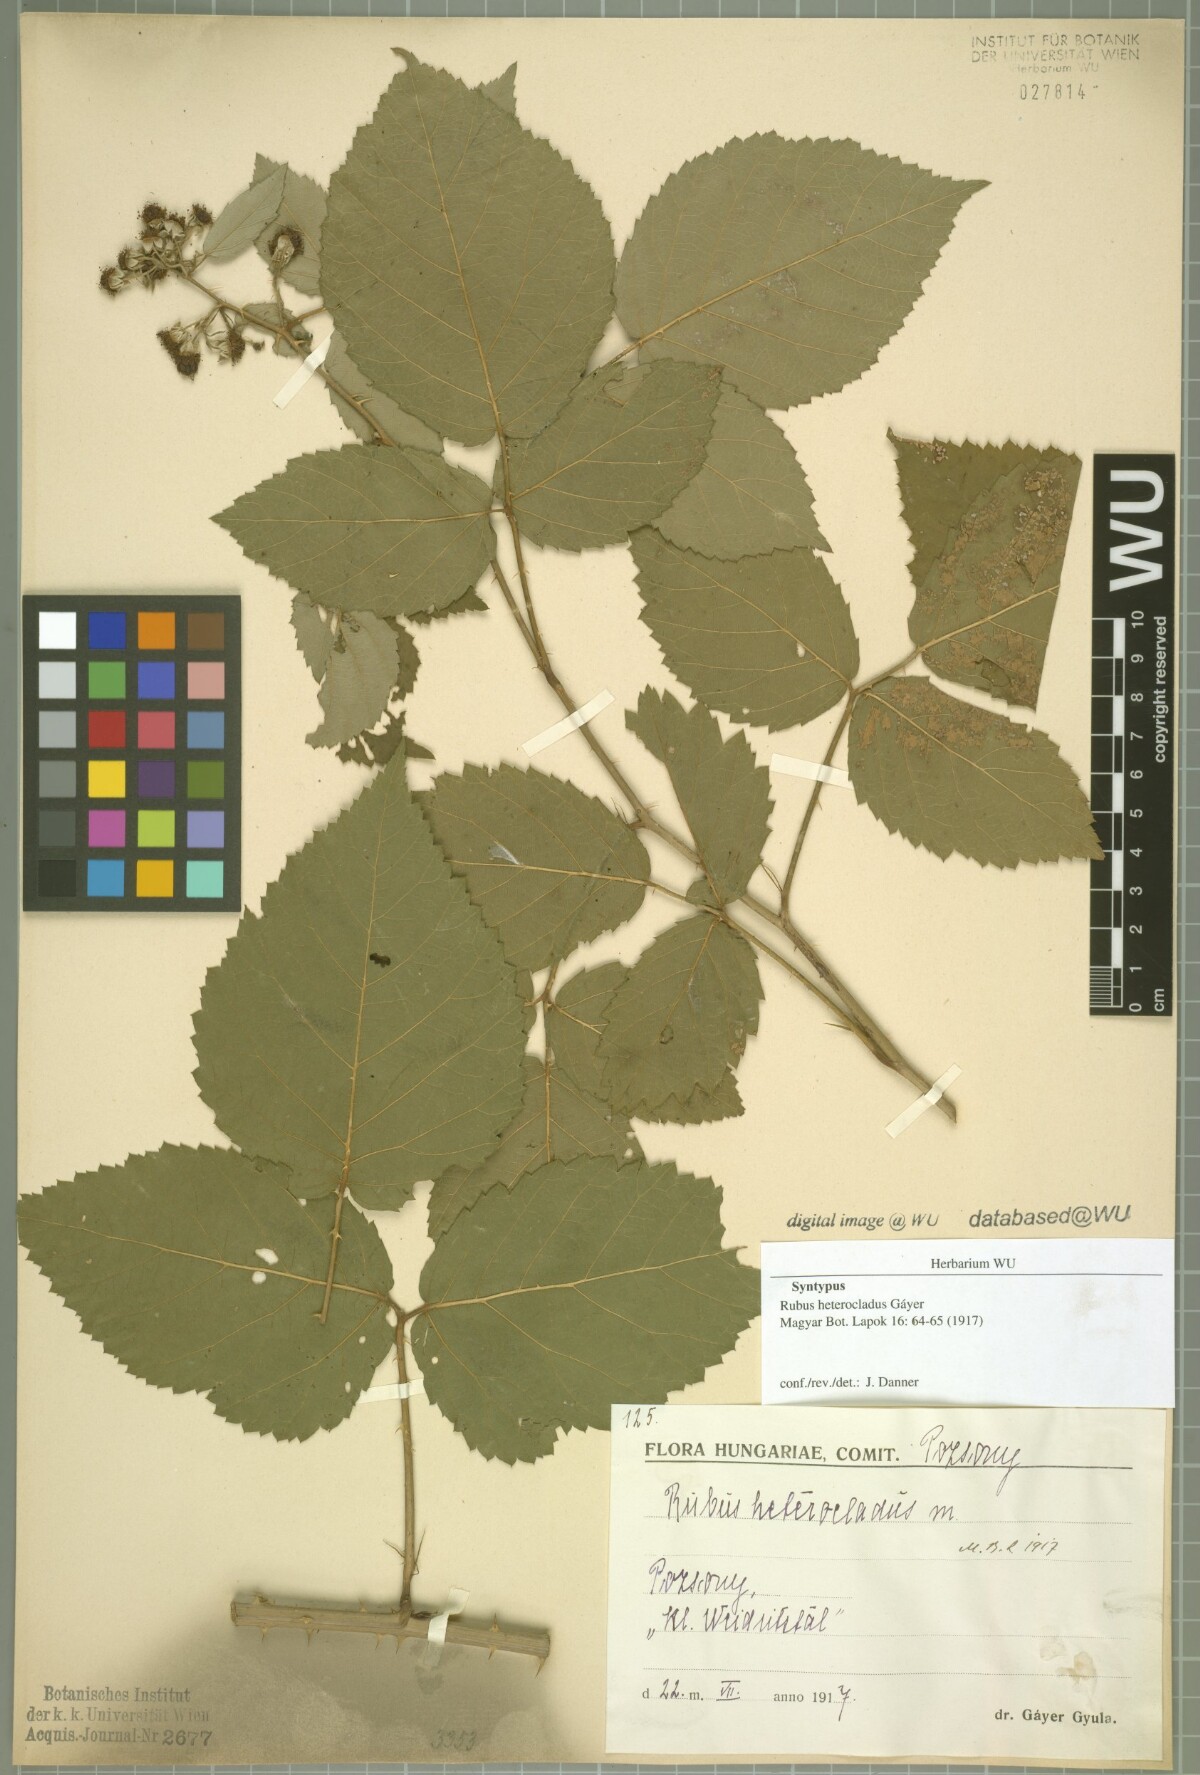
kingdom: Plantae
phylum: Tracheophyta
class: Magnoliopsida
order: Rosales
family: Rosaceae
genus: Rubus
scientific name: Rubus heterocladus
